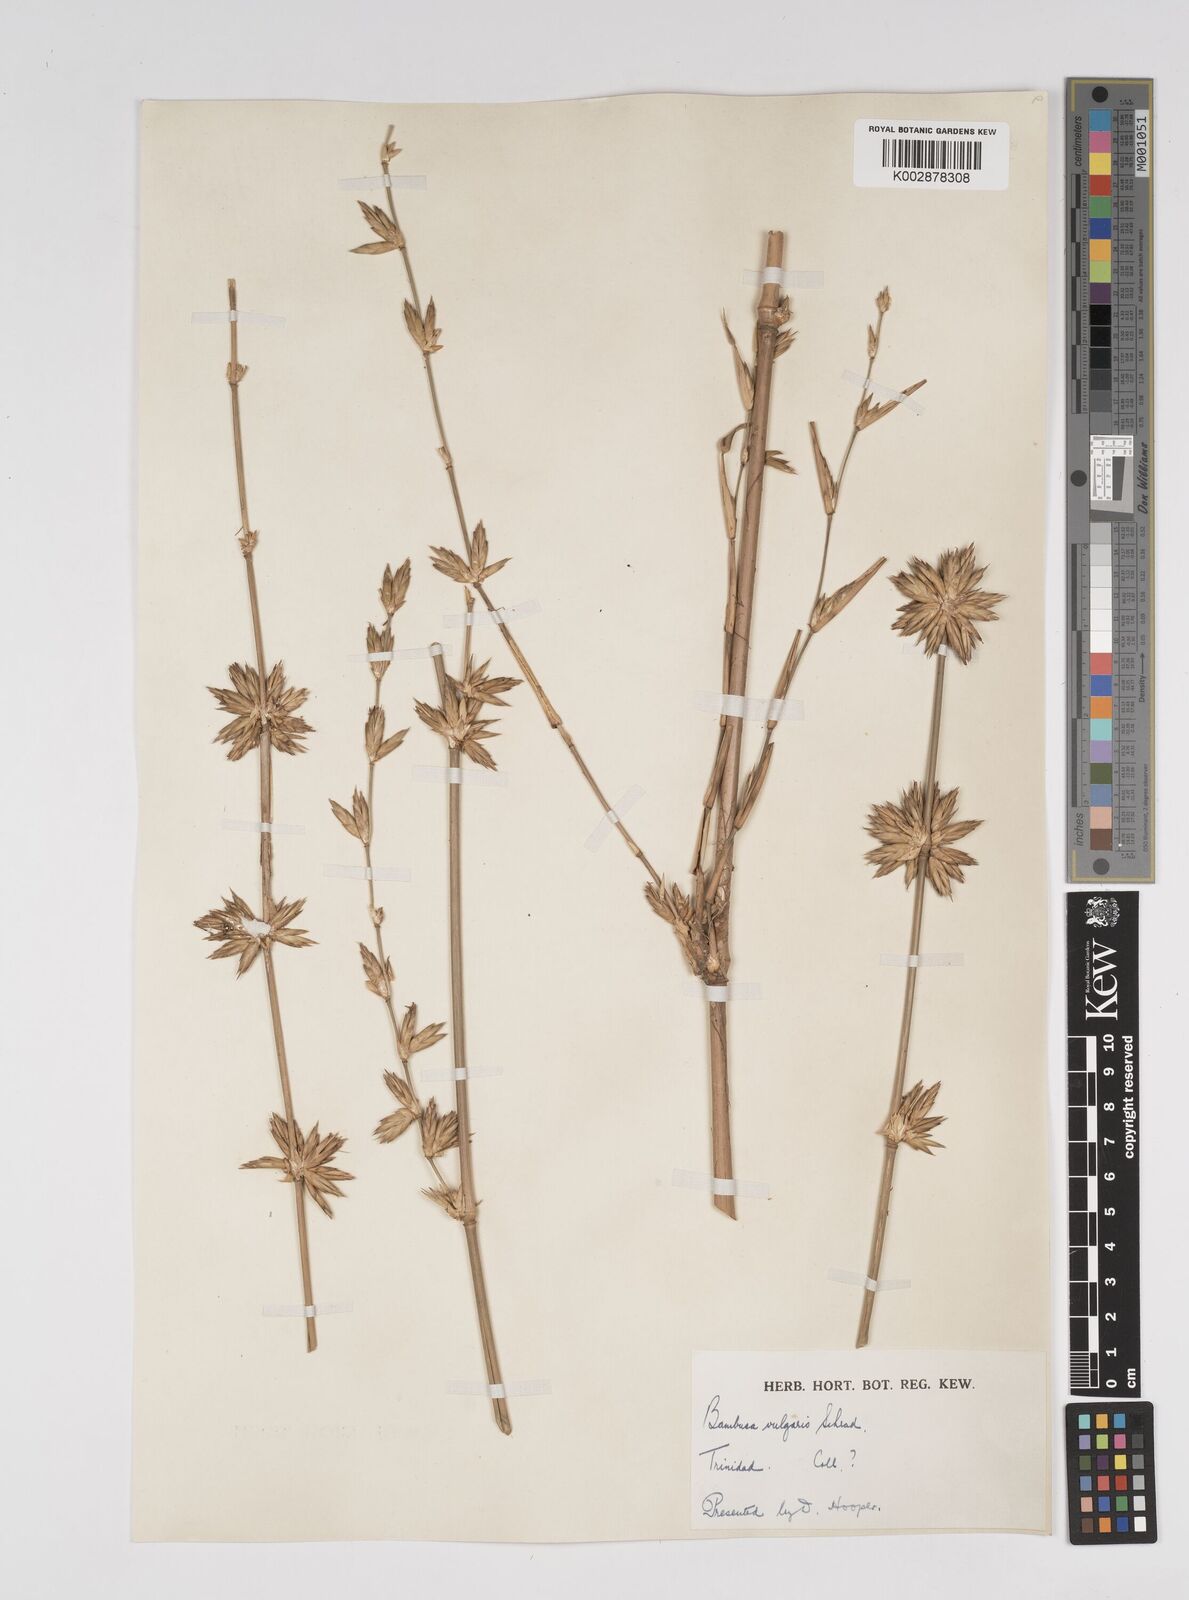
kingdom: Plantae
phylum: Tracheophyta
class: Liliopsida
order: Poales
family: Poaceae
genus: Bambusa
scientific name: Bambusa vulgaris
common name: Common bamboo
